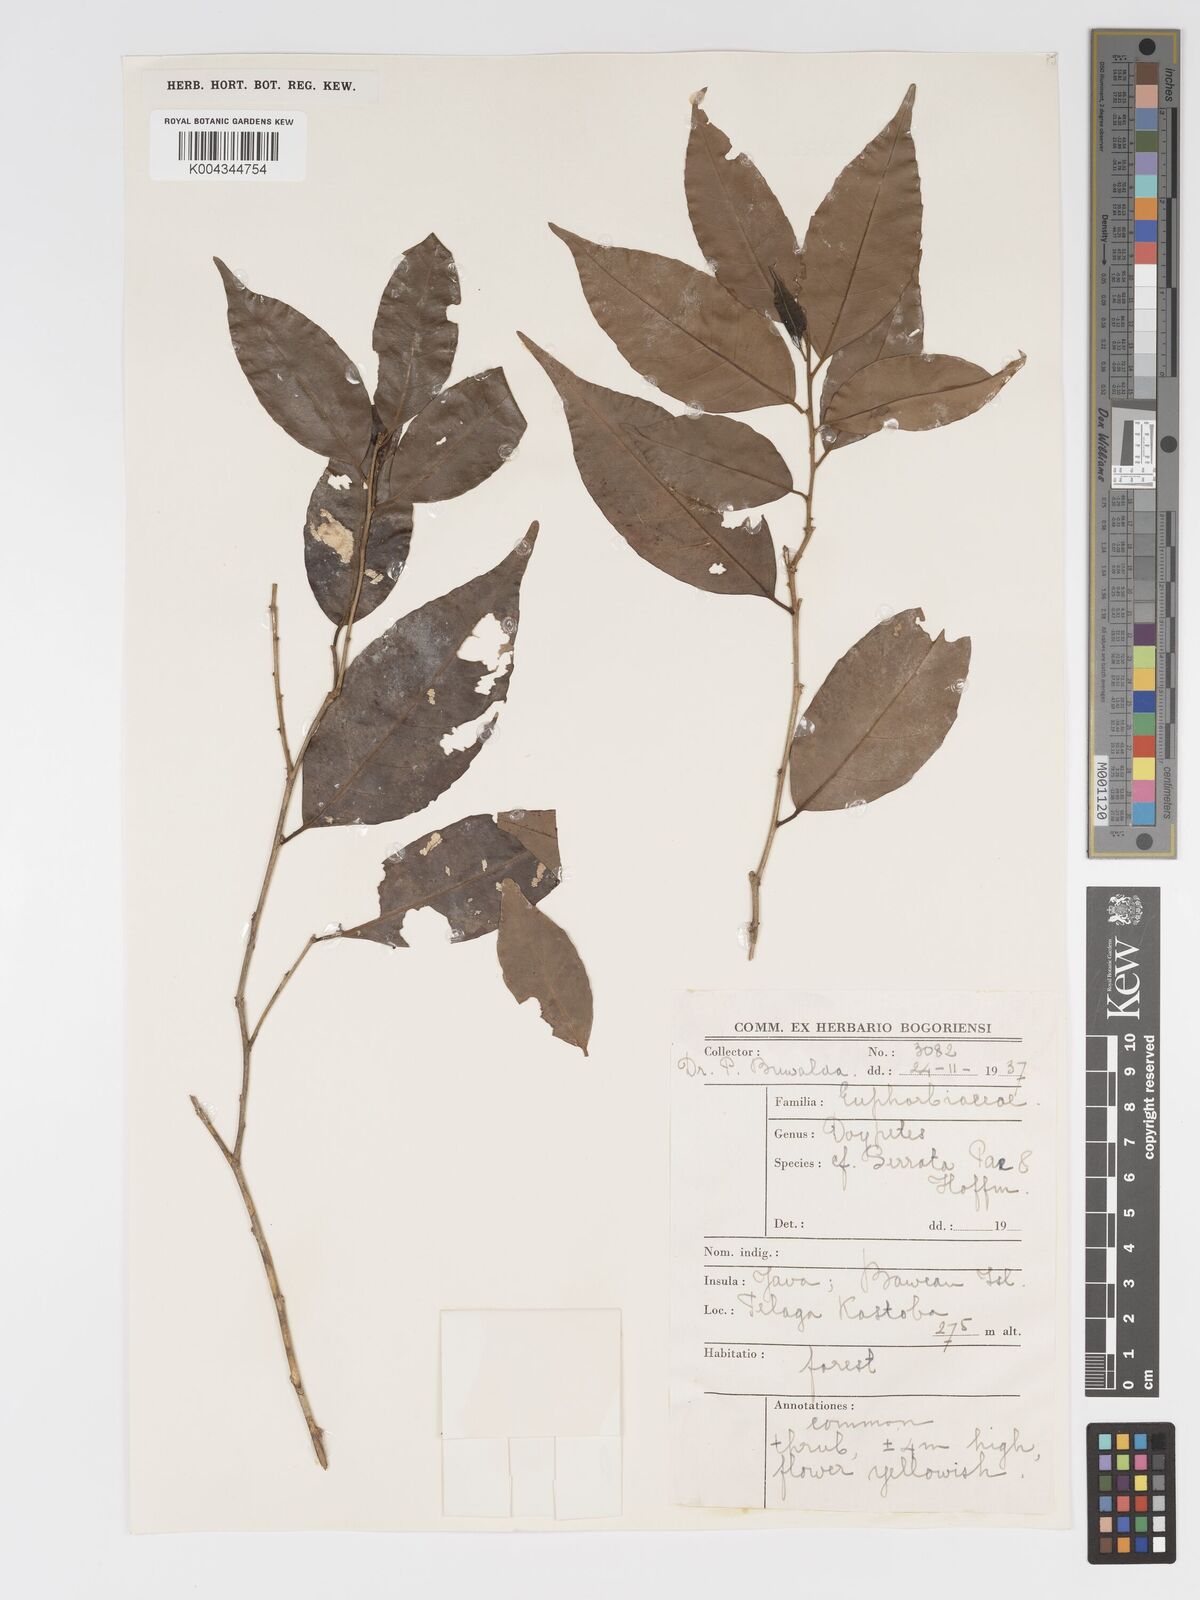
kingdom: Plantae
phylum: Tracheophyta
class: Magnoliopsida
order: Malpighiales
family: Putranjivaceae
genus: Drypetes
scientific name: Drypetes teysmannii
